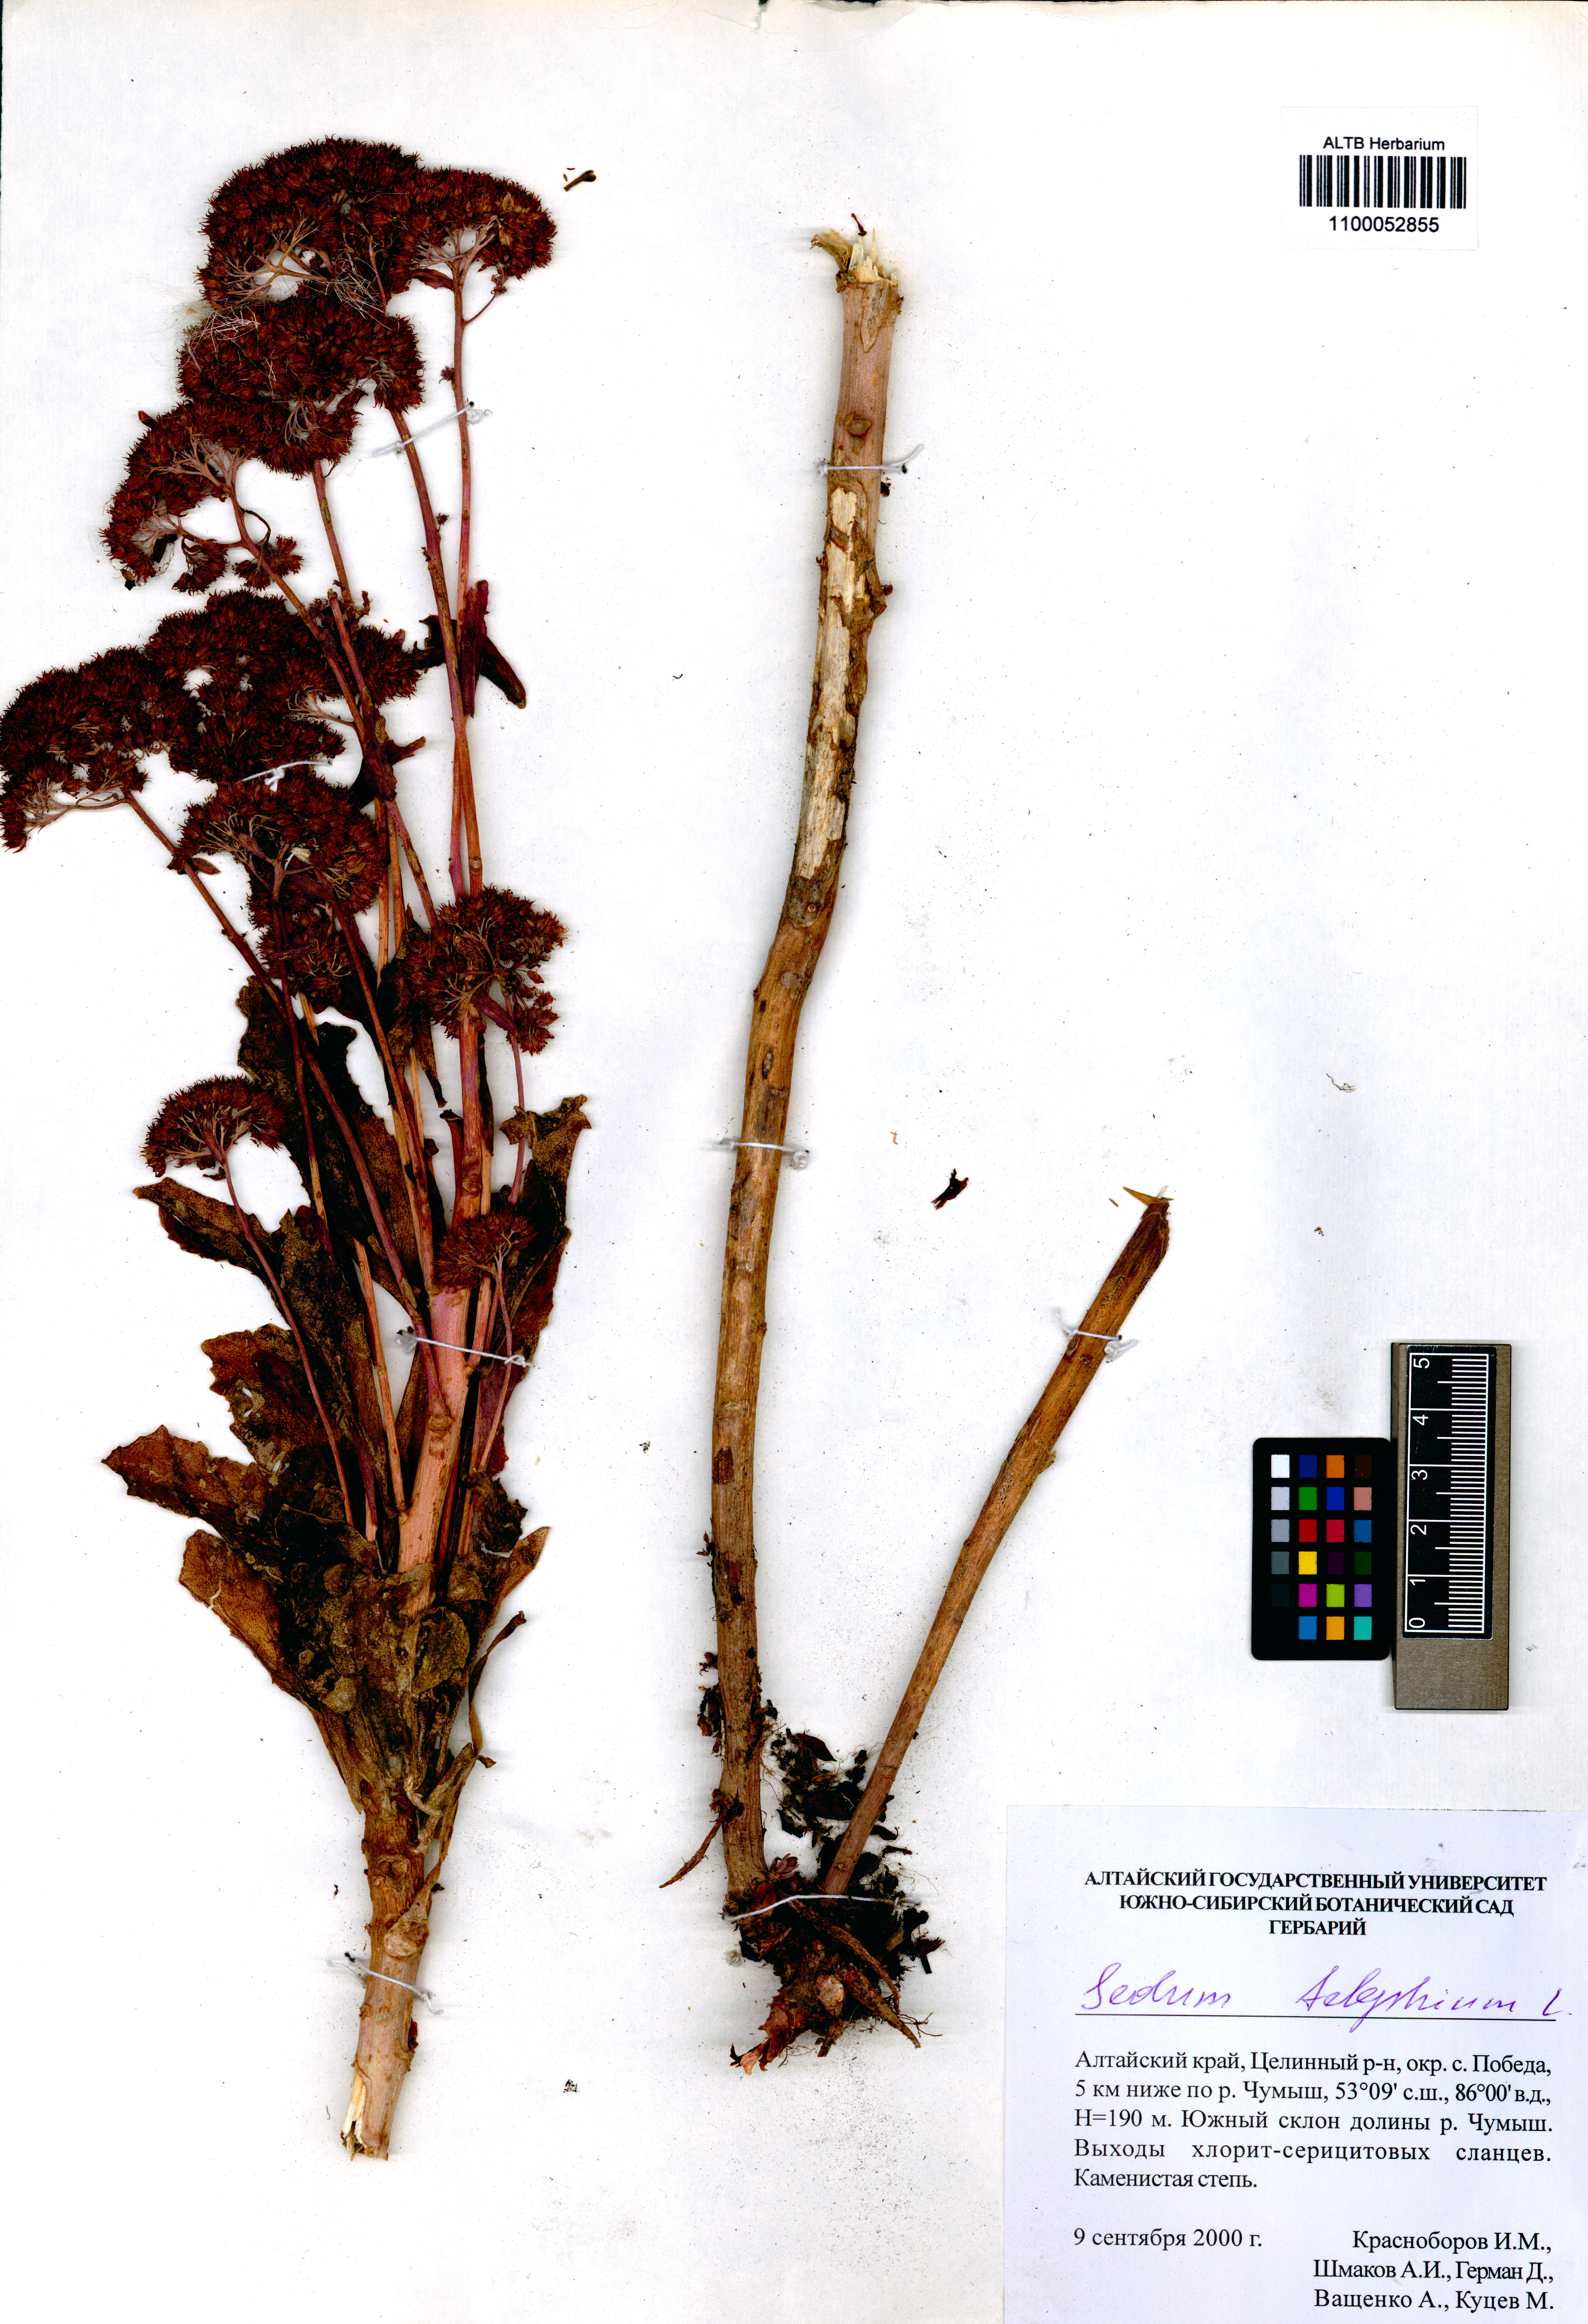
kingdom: Plantae
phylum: Tracheophyta
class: Magnoliopsida
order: Saxifragales
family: Crassulaceae
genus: Hylotelephium
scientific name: Hylotelephium telephium
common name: Live-forever
